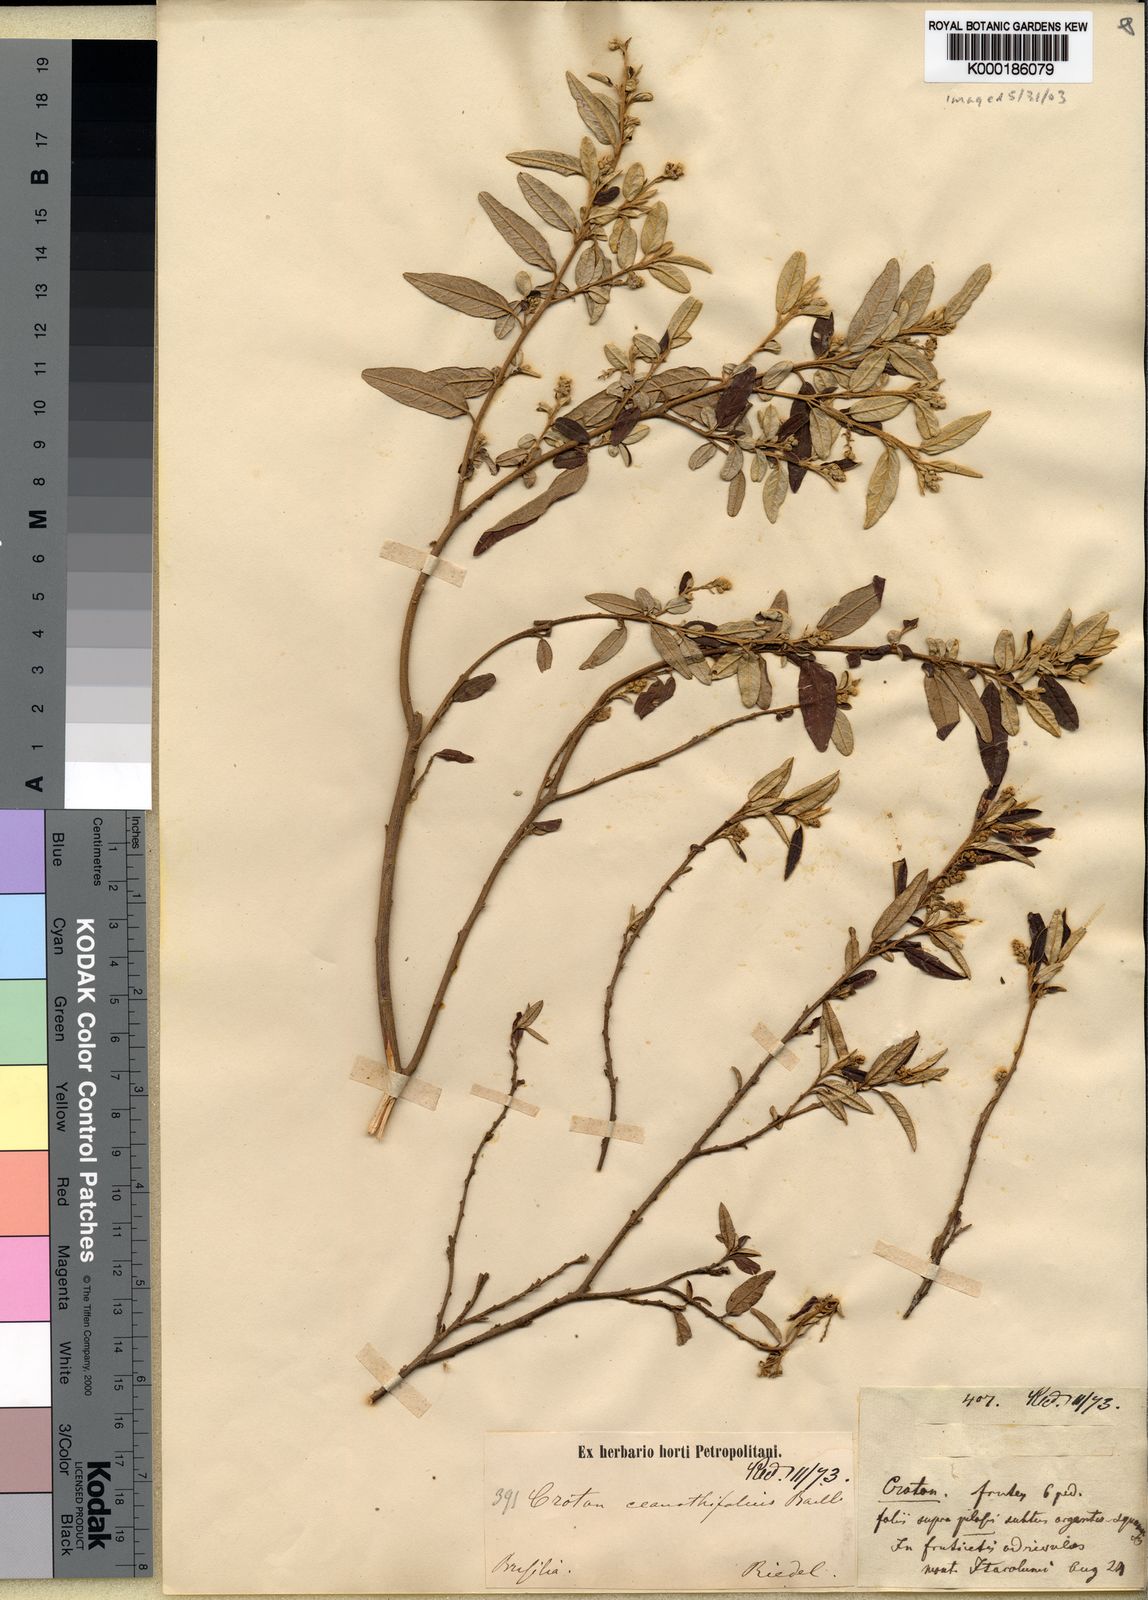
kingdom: Plantae
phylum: Tracheophyta
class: Magnoliopsida
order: Malpighiales
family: Euphorbiaceae
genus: Croton
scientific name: Croton ceanothifolius
